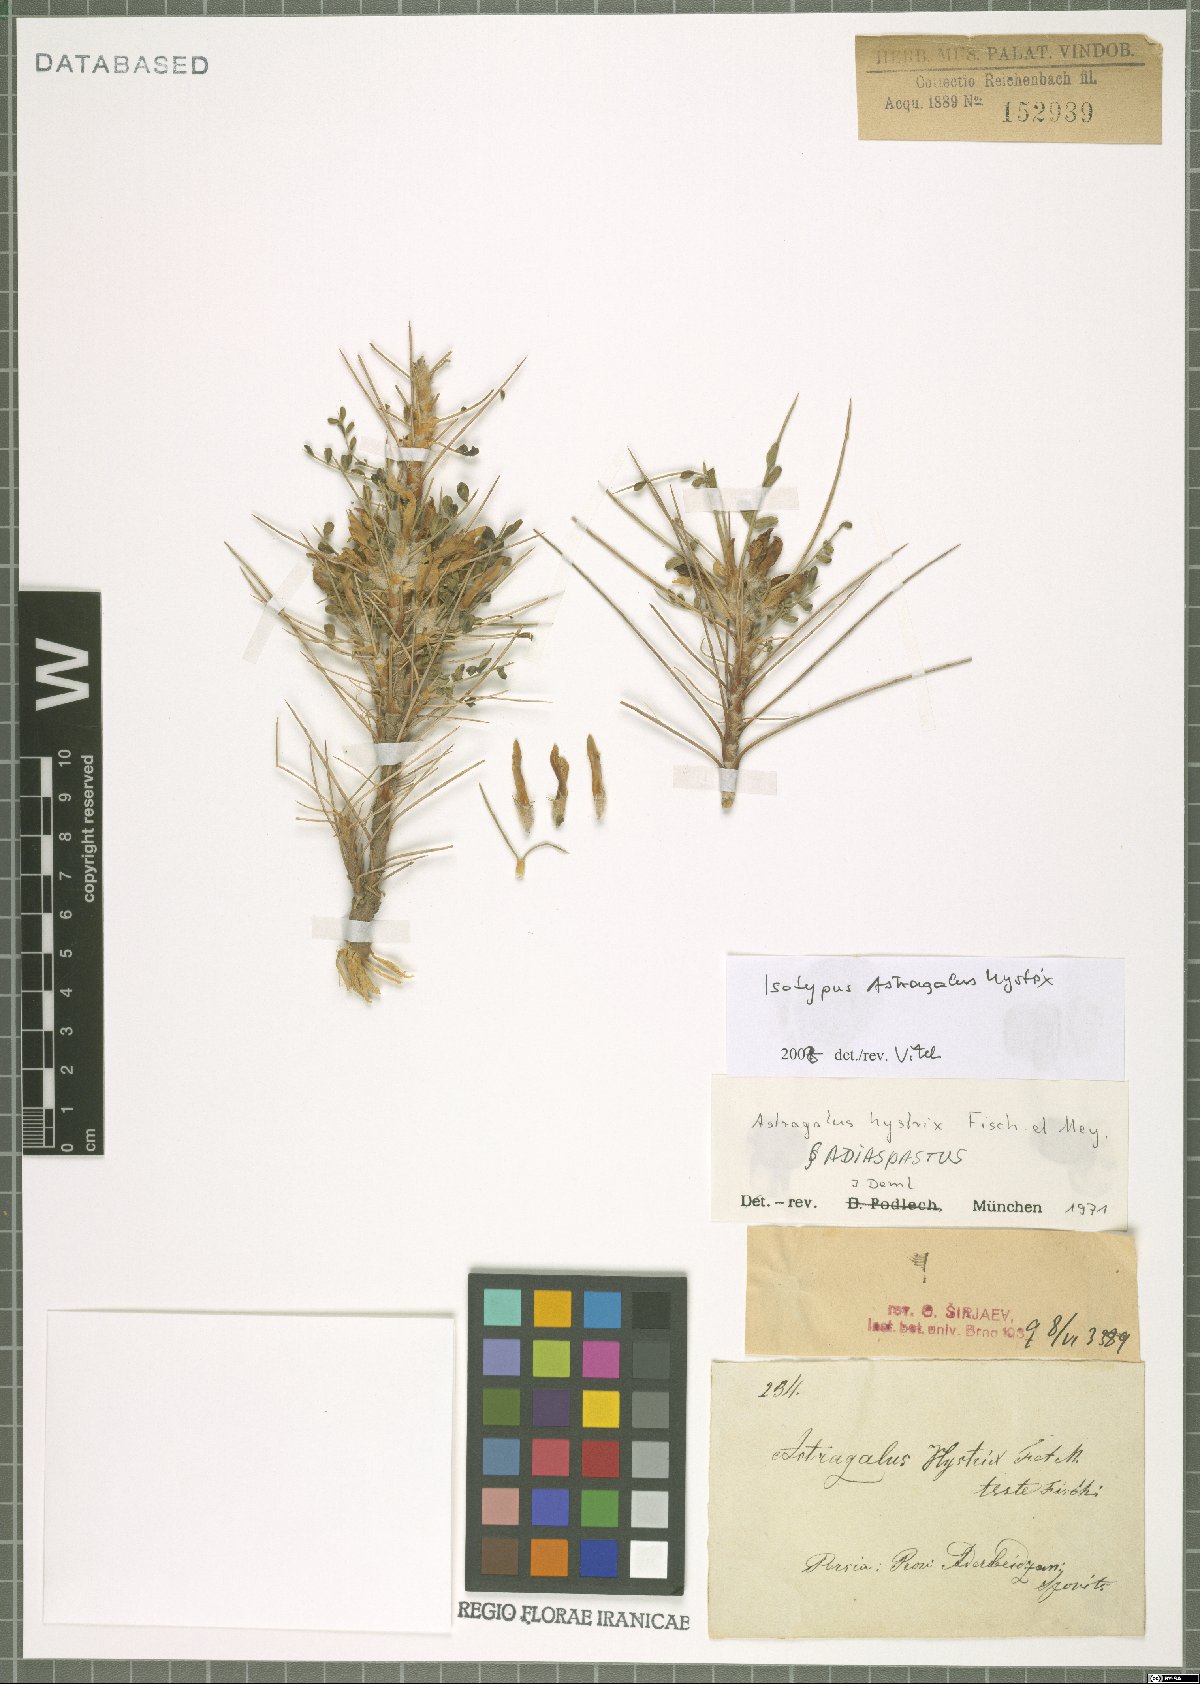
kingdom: Plantae
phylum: Tracheophyta
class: Magnoliopsida
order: Fabales
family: Fabaceae
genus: Astragalus
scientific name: Astragalus hystrix
